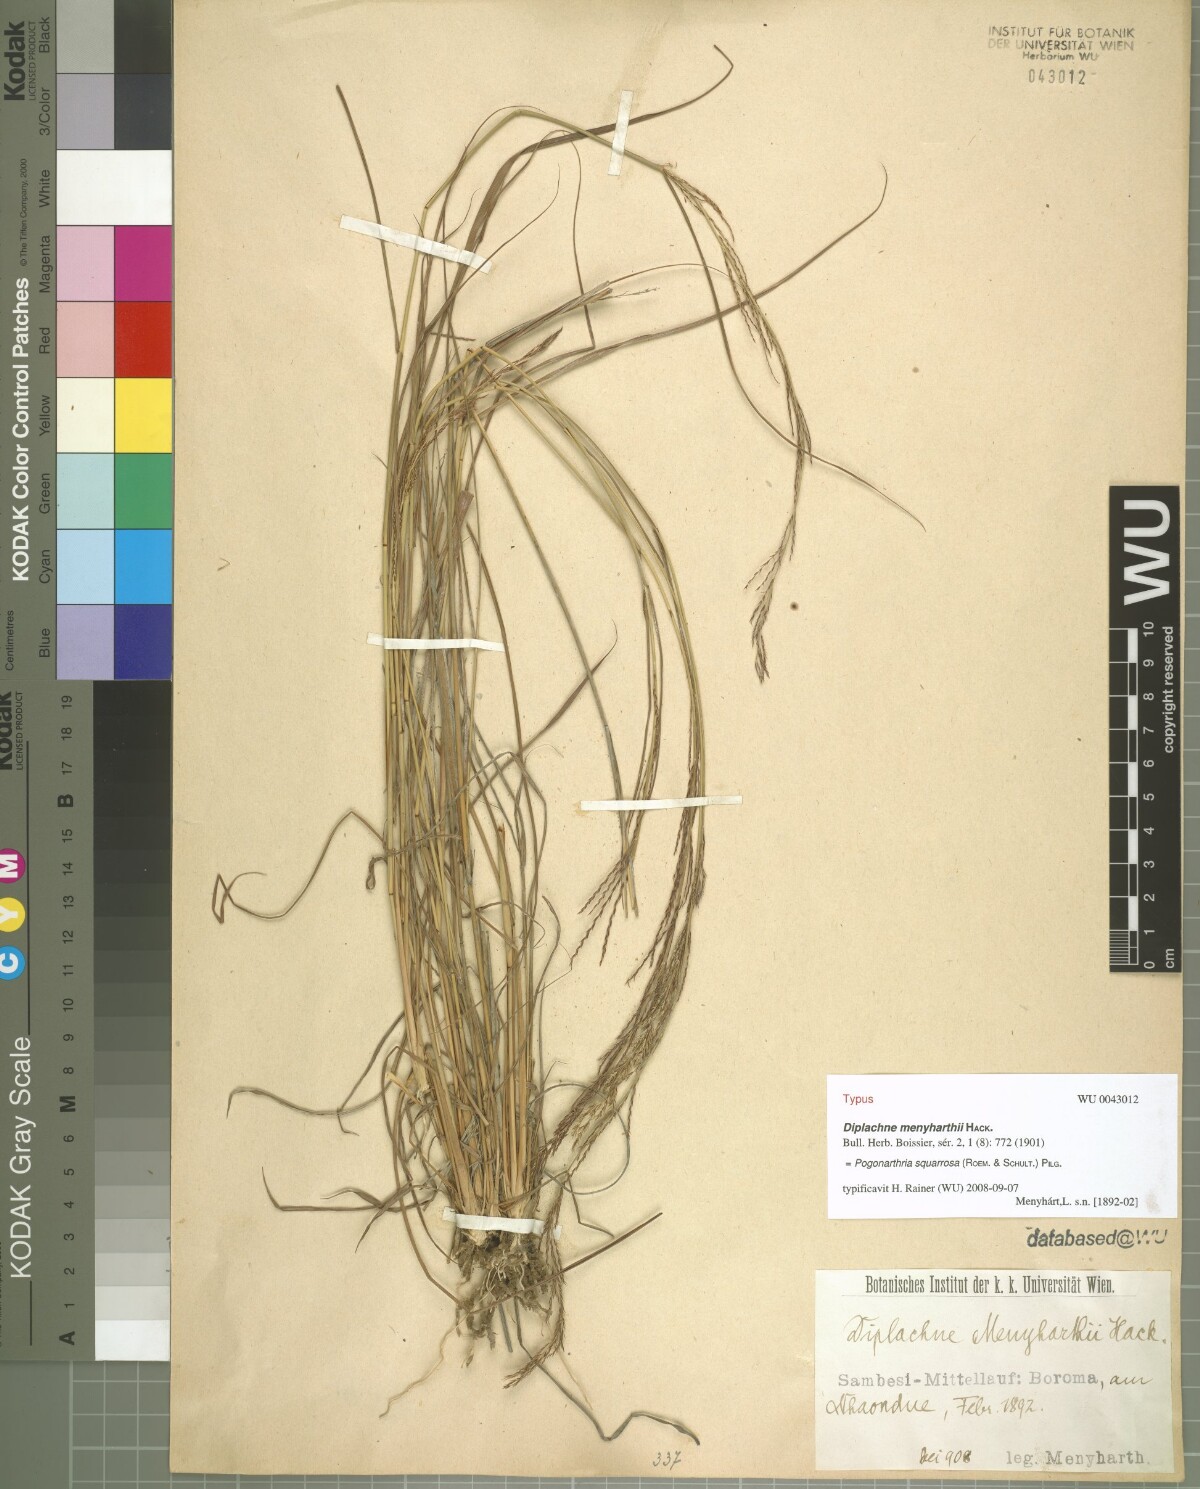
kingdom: Plantae
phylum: Tracheophyta
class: Liliopsida
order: Poales
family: Poaceae
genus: Pogonarthria
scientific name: Pogonarthria squarrosa
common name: Grass
